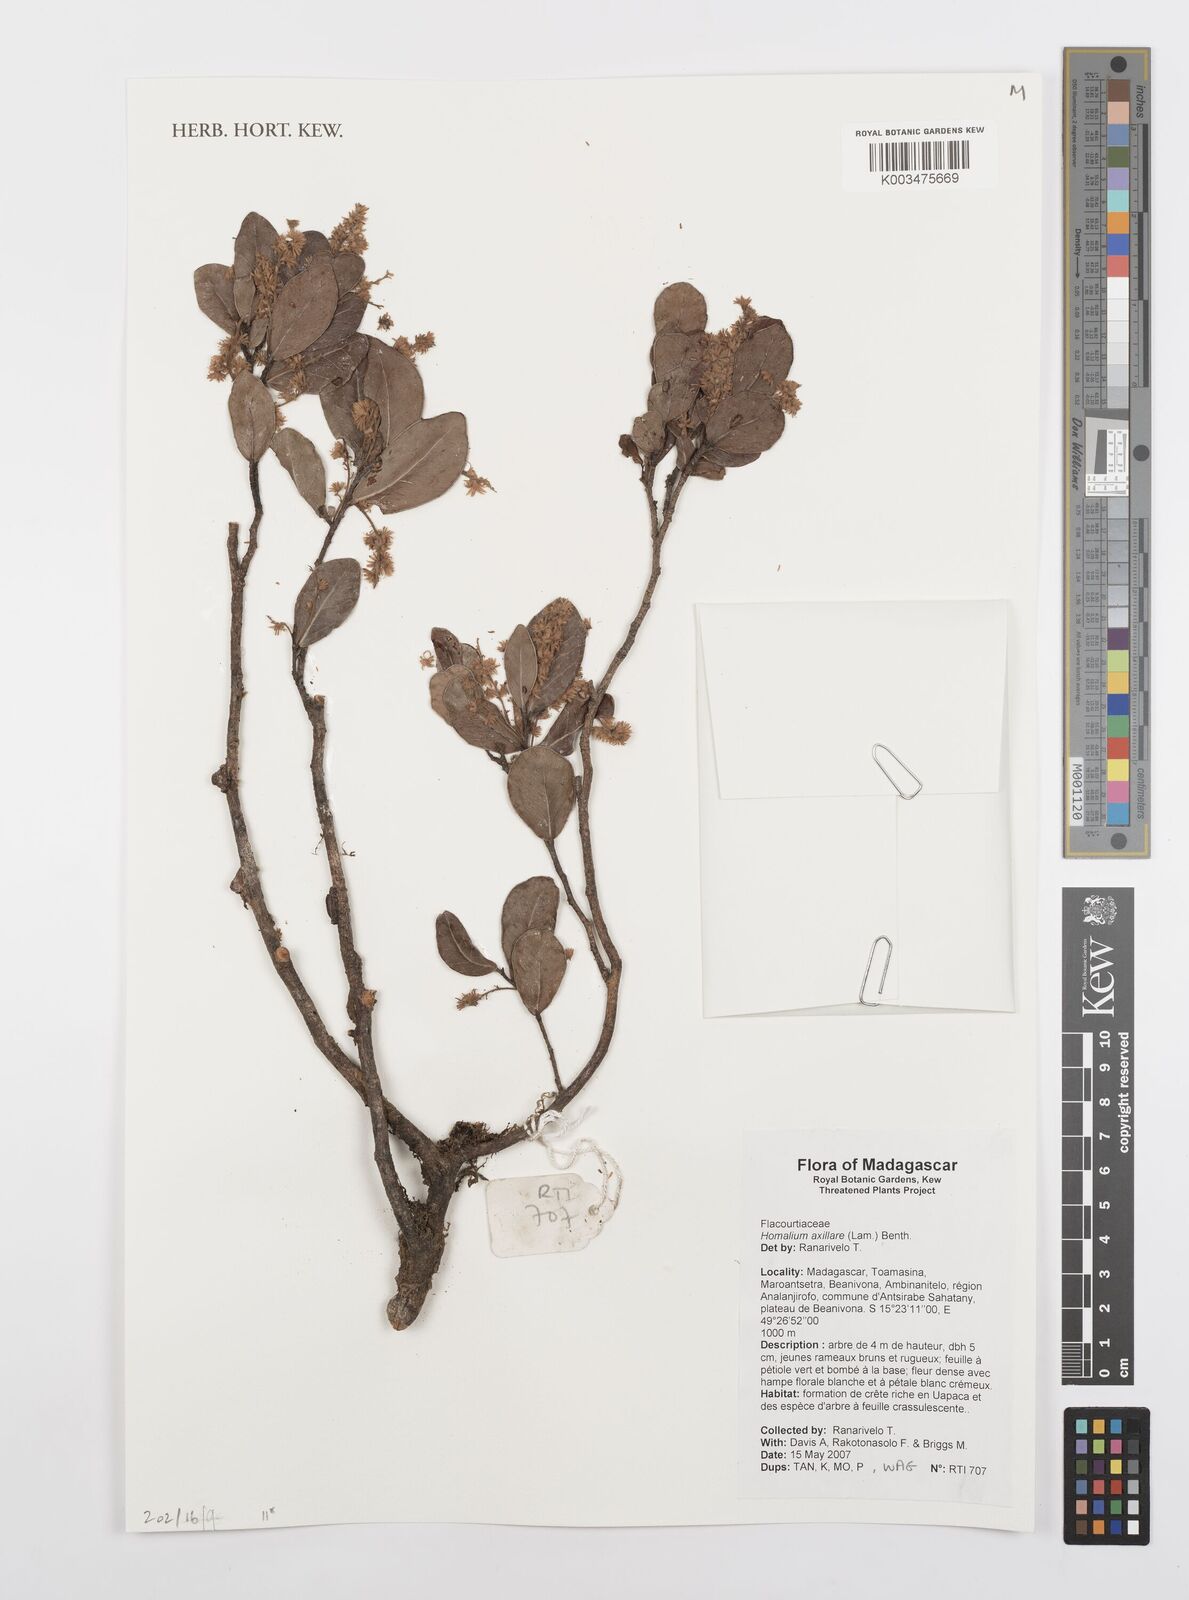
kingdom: Plantae
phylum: Tracheophyta
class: Magnoliopsida
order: Malpighiales
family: Salicaceae
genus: Homalium
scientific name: Homalium axillare
